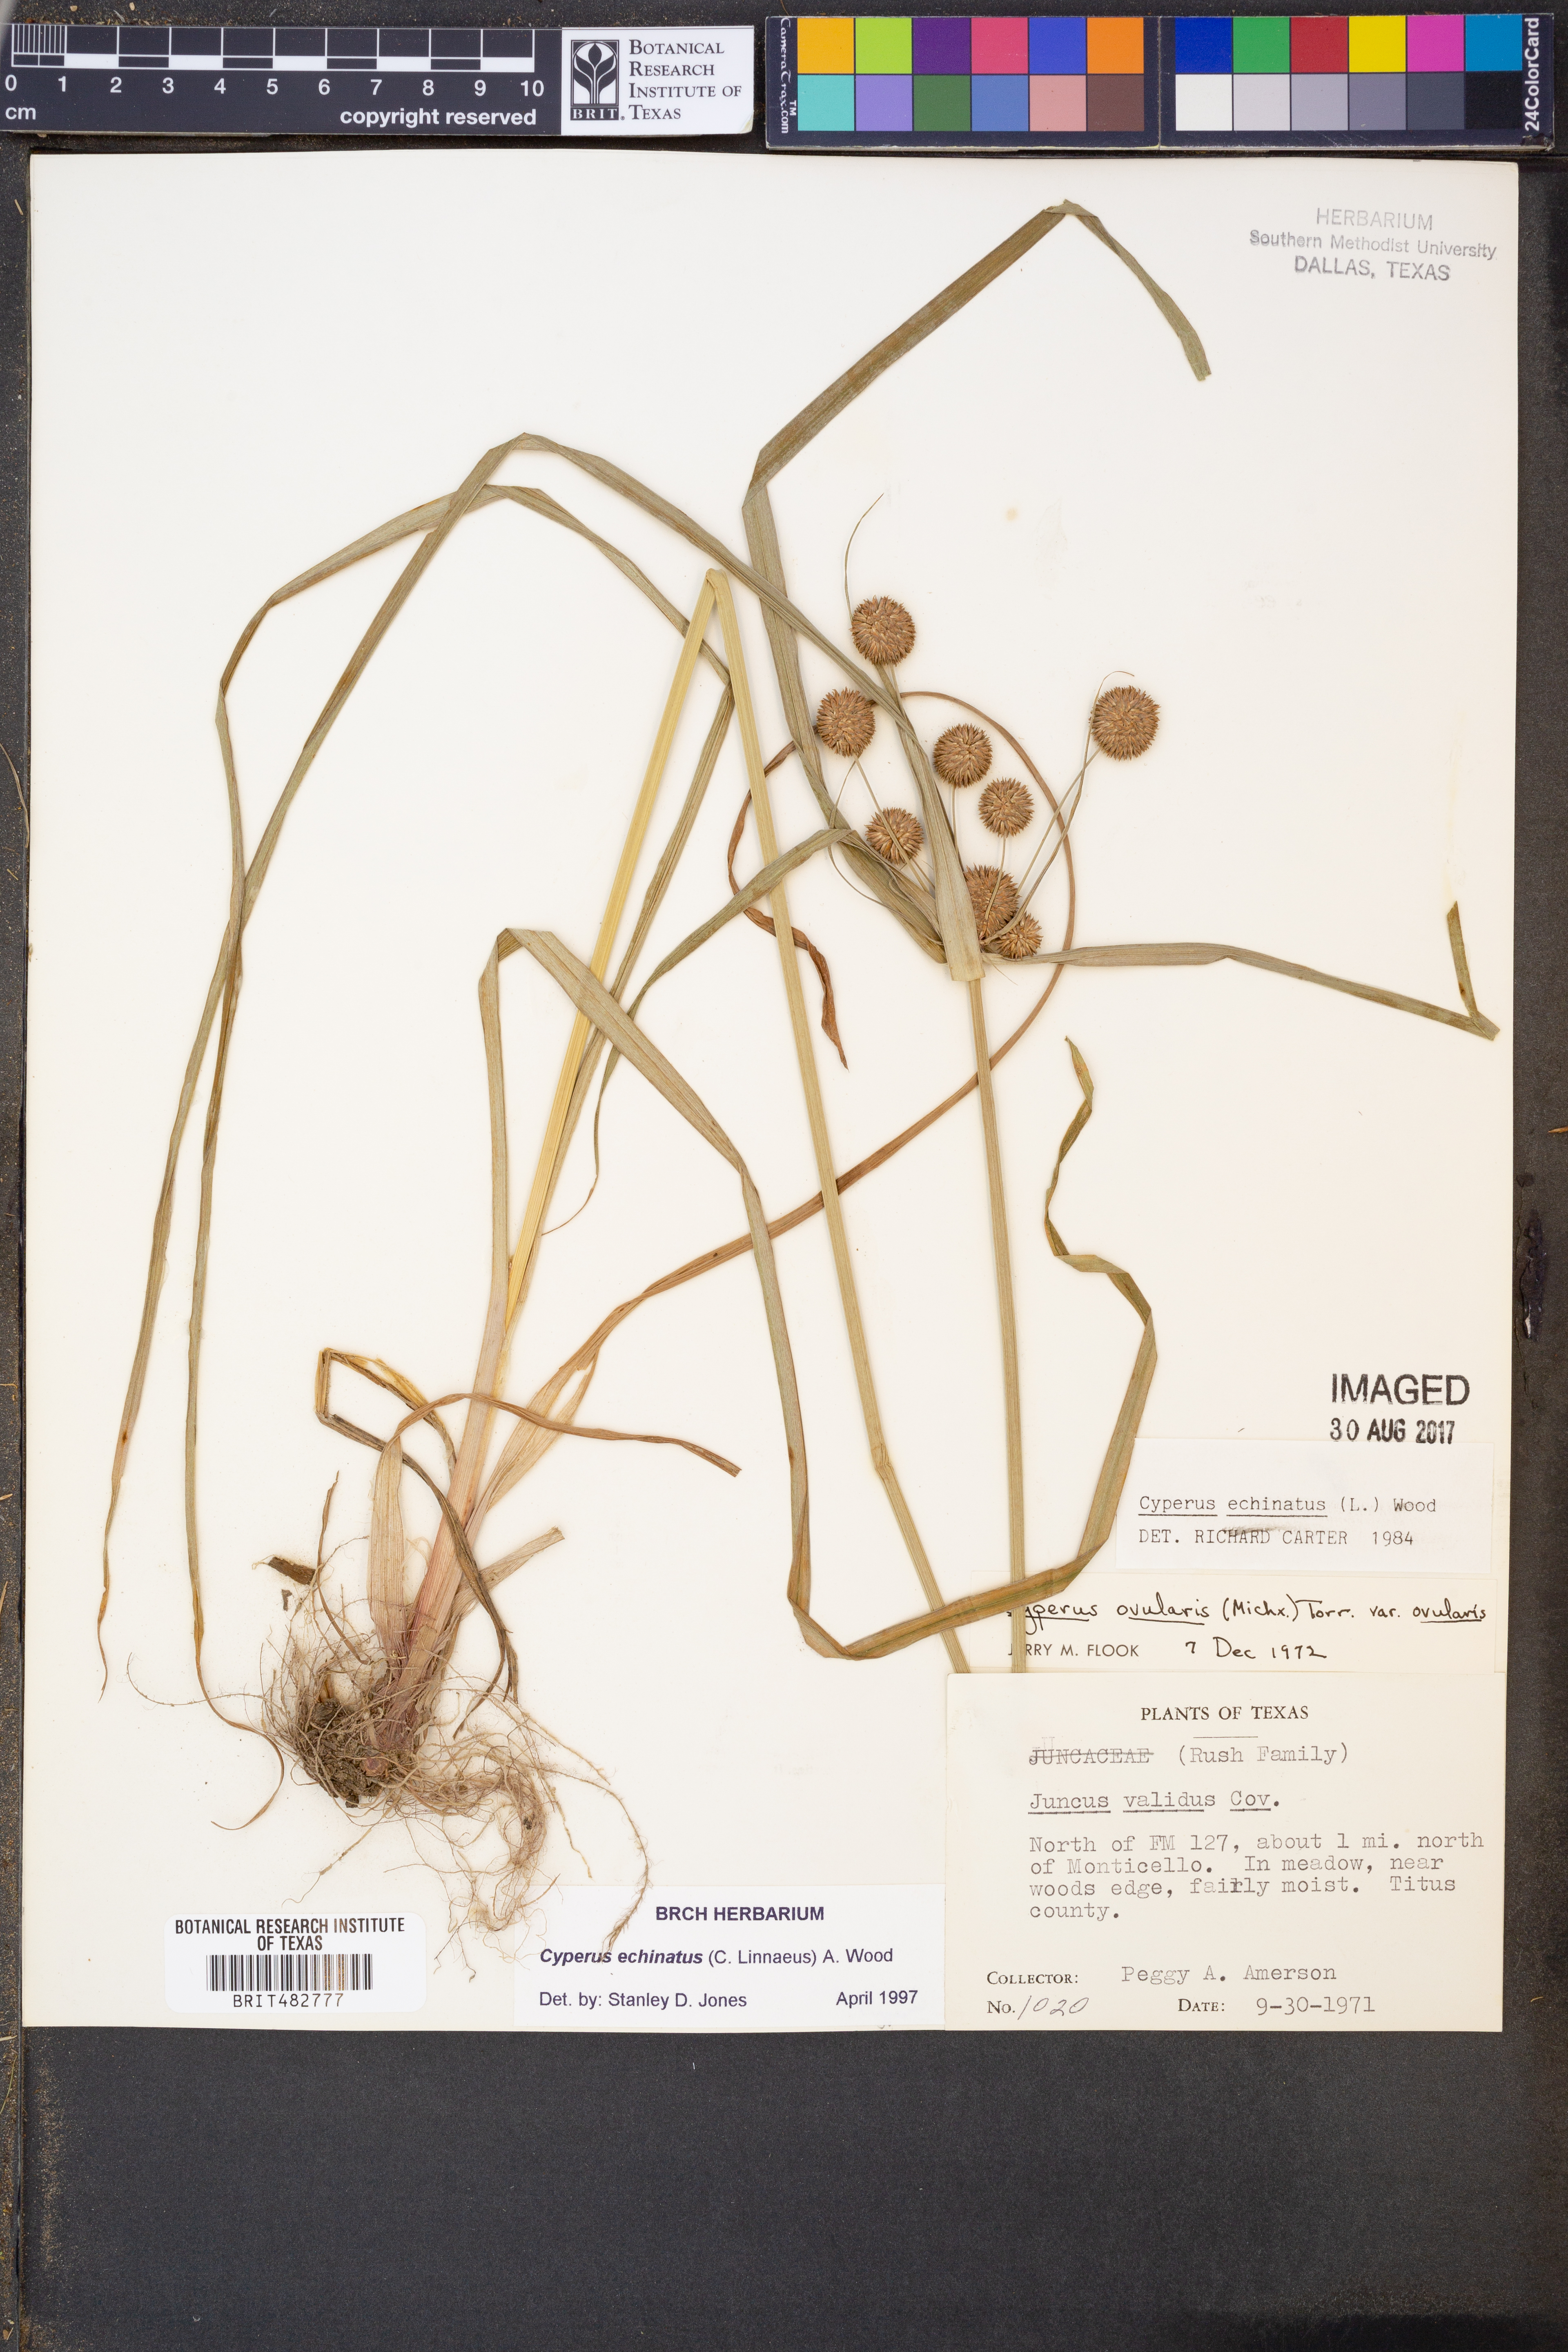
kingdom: Plantae
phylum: Tracheophyta
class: Liliopsida
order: Poales
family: Cyperaceae
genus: Cyperus
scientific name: Cyperus echinatus
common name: Teasel sedge
